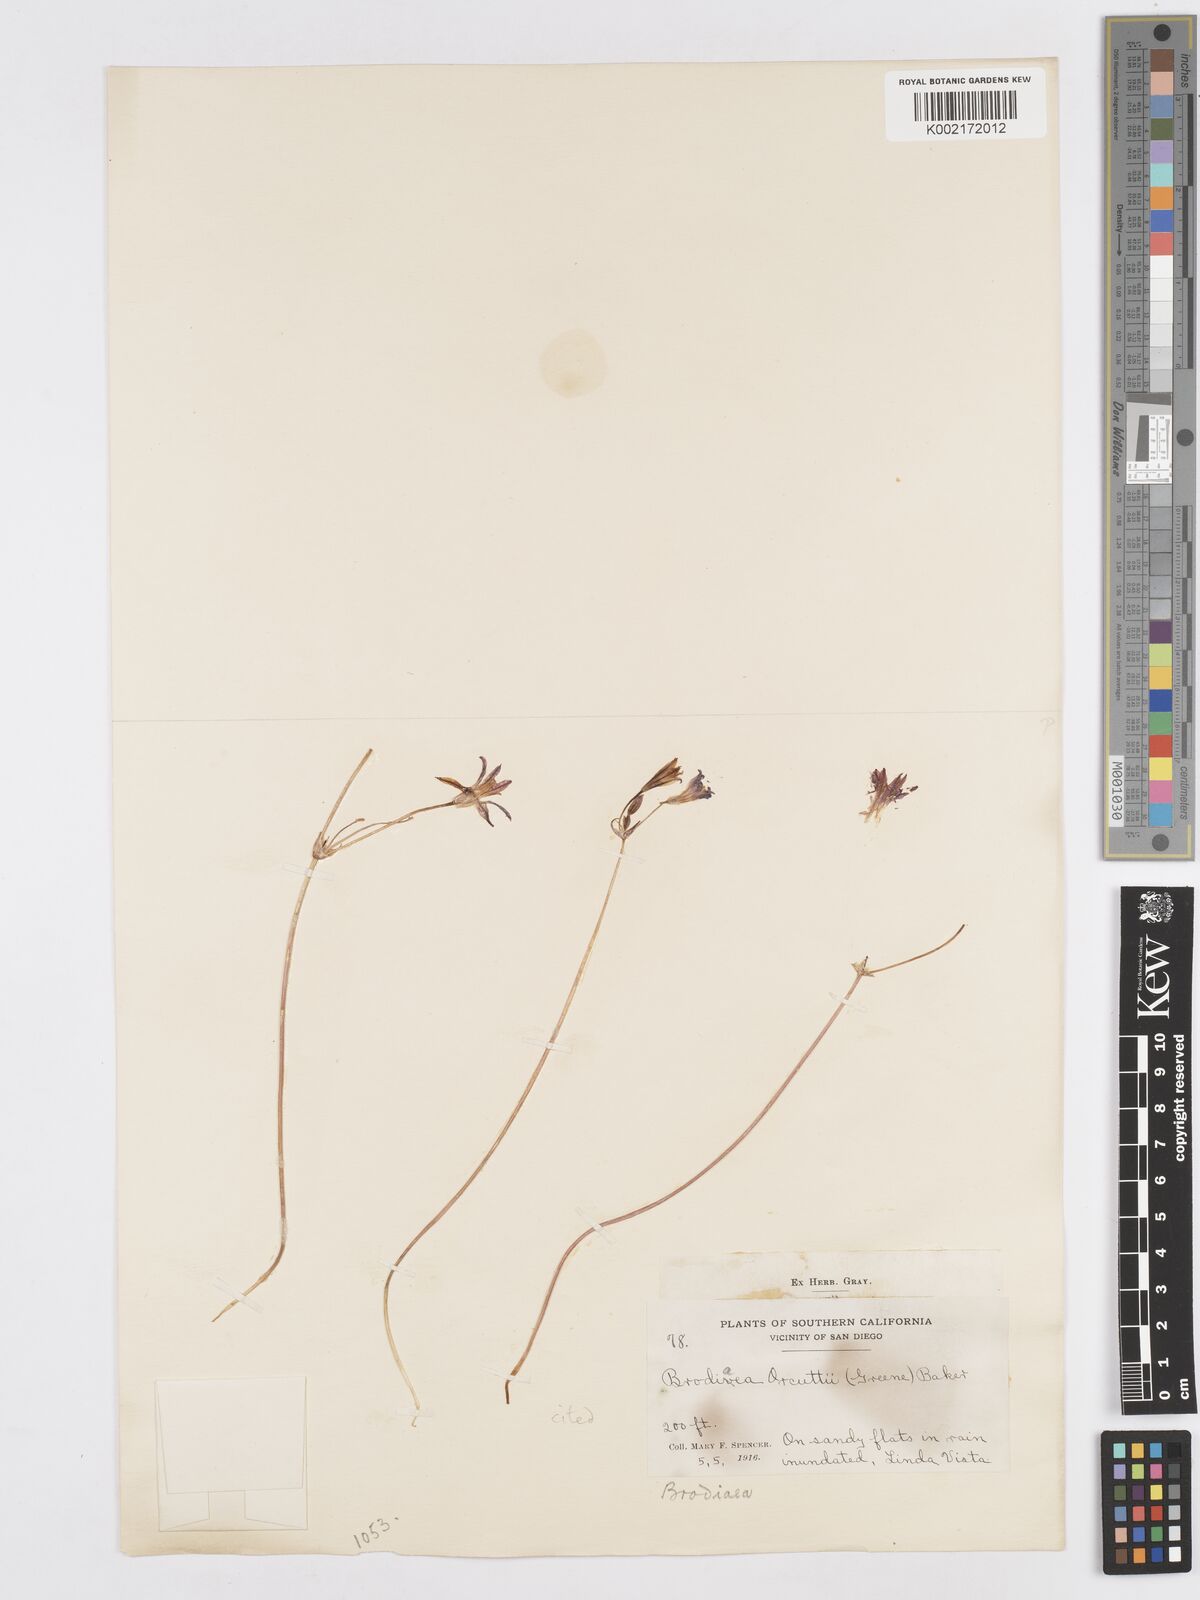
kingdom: Plantae
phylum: Tracheophyta
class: Liliopsida
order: Asparagales
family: Asparagaceae
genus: Brodiaea
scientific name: Brodiaea orcuttii
